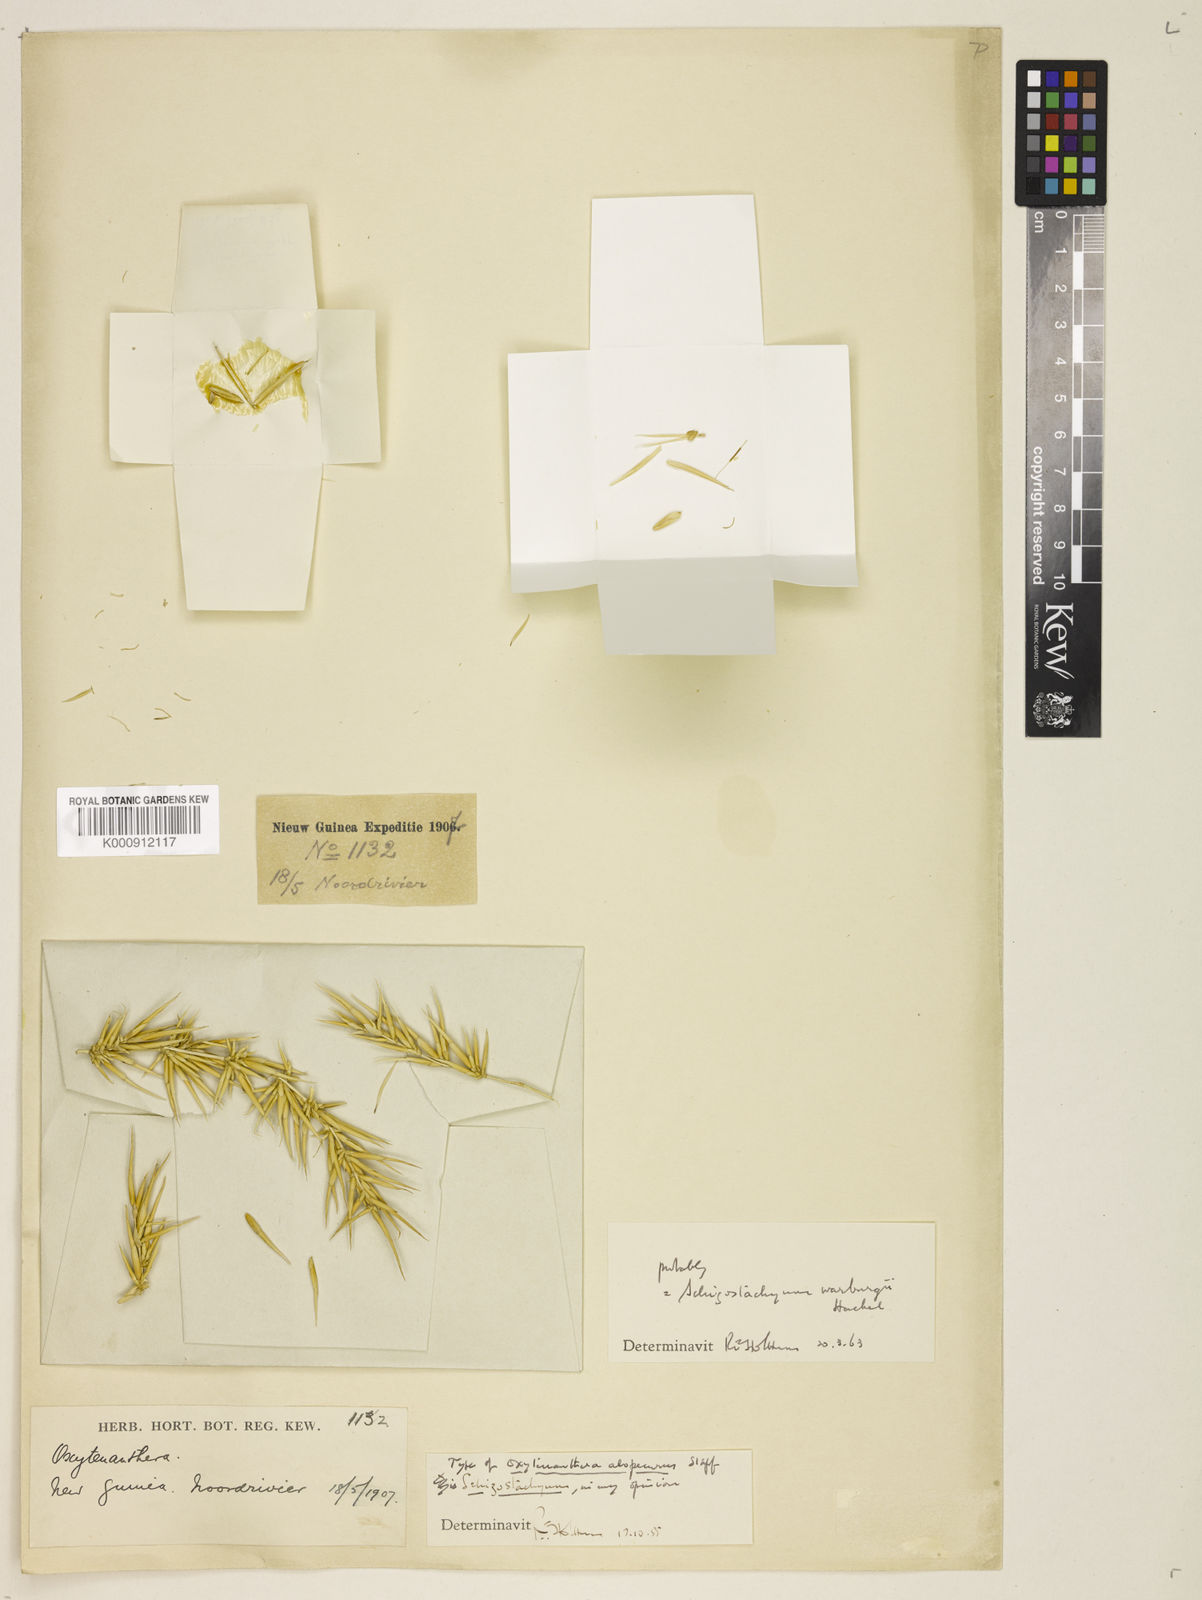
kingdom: Plantae
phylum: Tracheophyta
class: Liliopsida
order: Poales
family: Poaceae
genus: Schizostachyum
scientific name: Schizostachyum alopecurus
